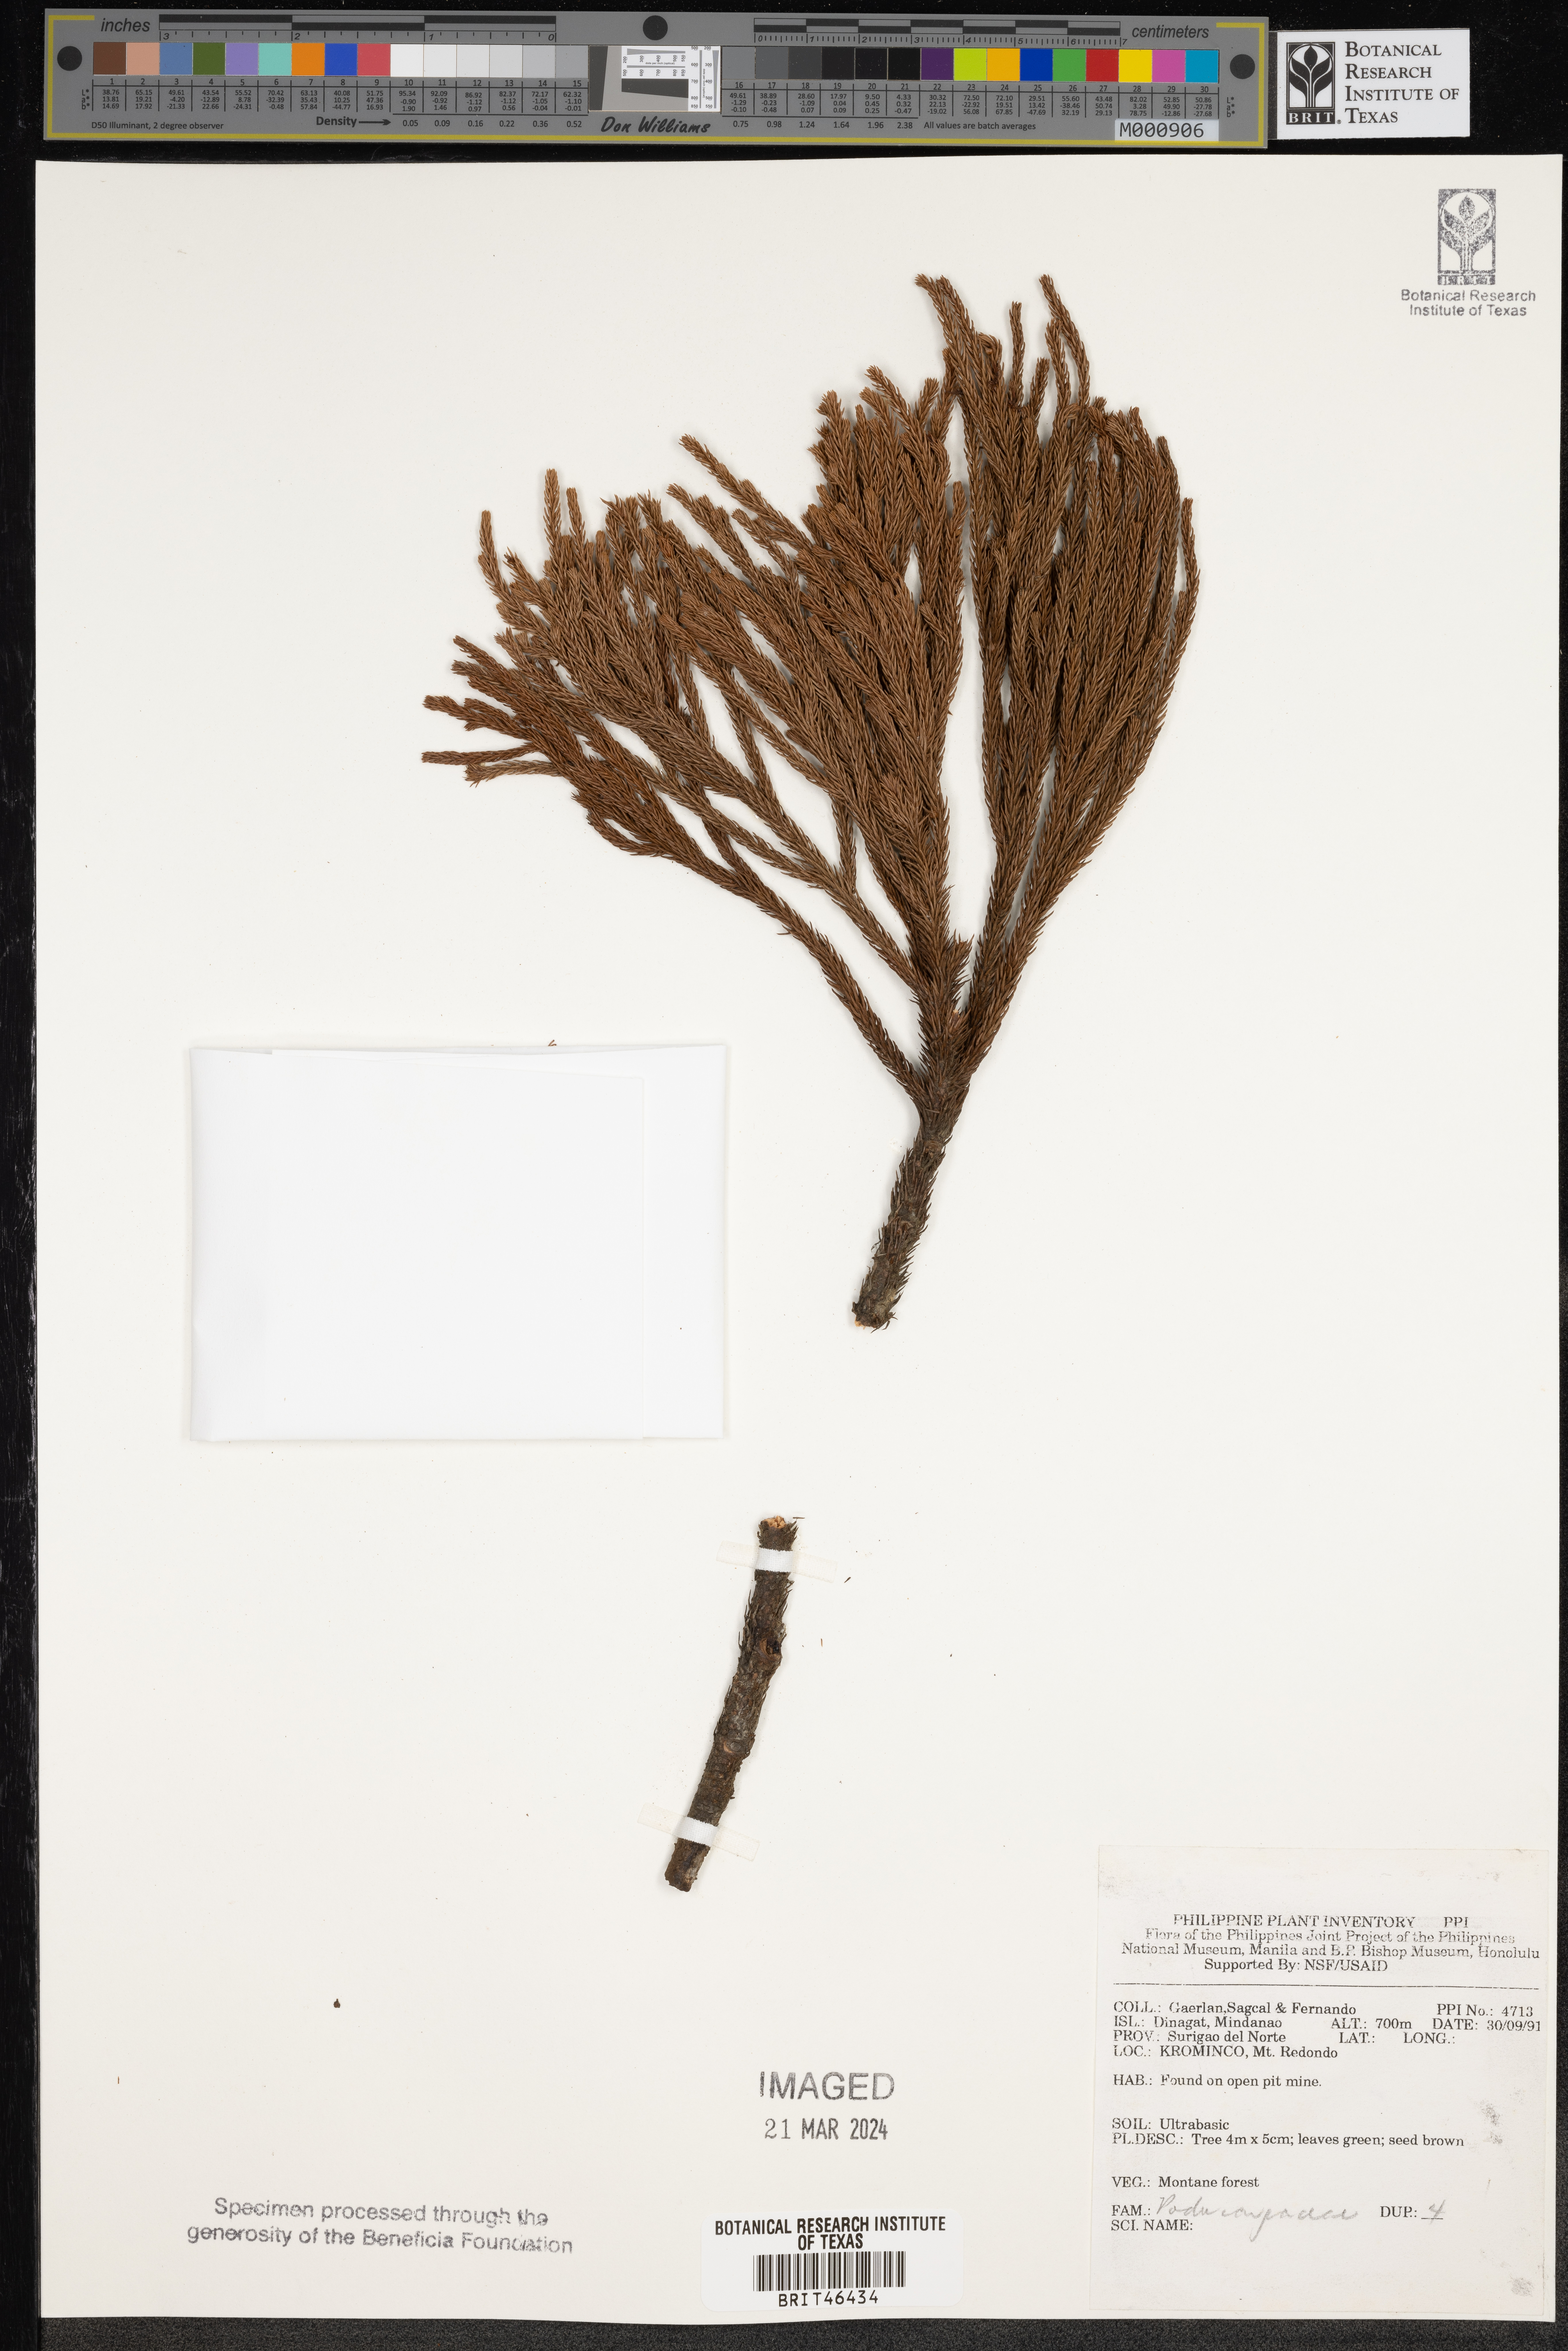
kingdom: Plantae
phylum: Tracheophyta
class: Pinopsida
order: Pinales
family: Podocarpaceae
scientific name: Podocarpaceae
